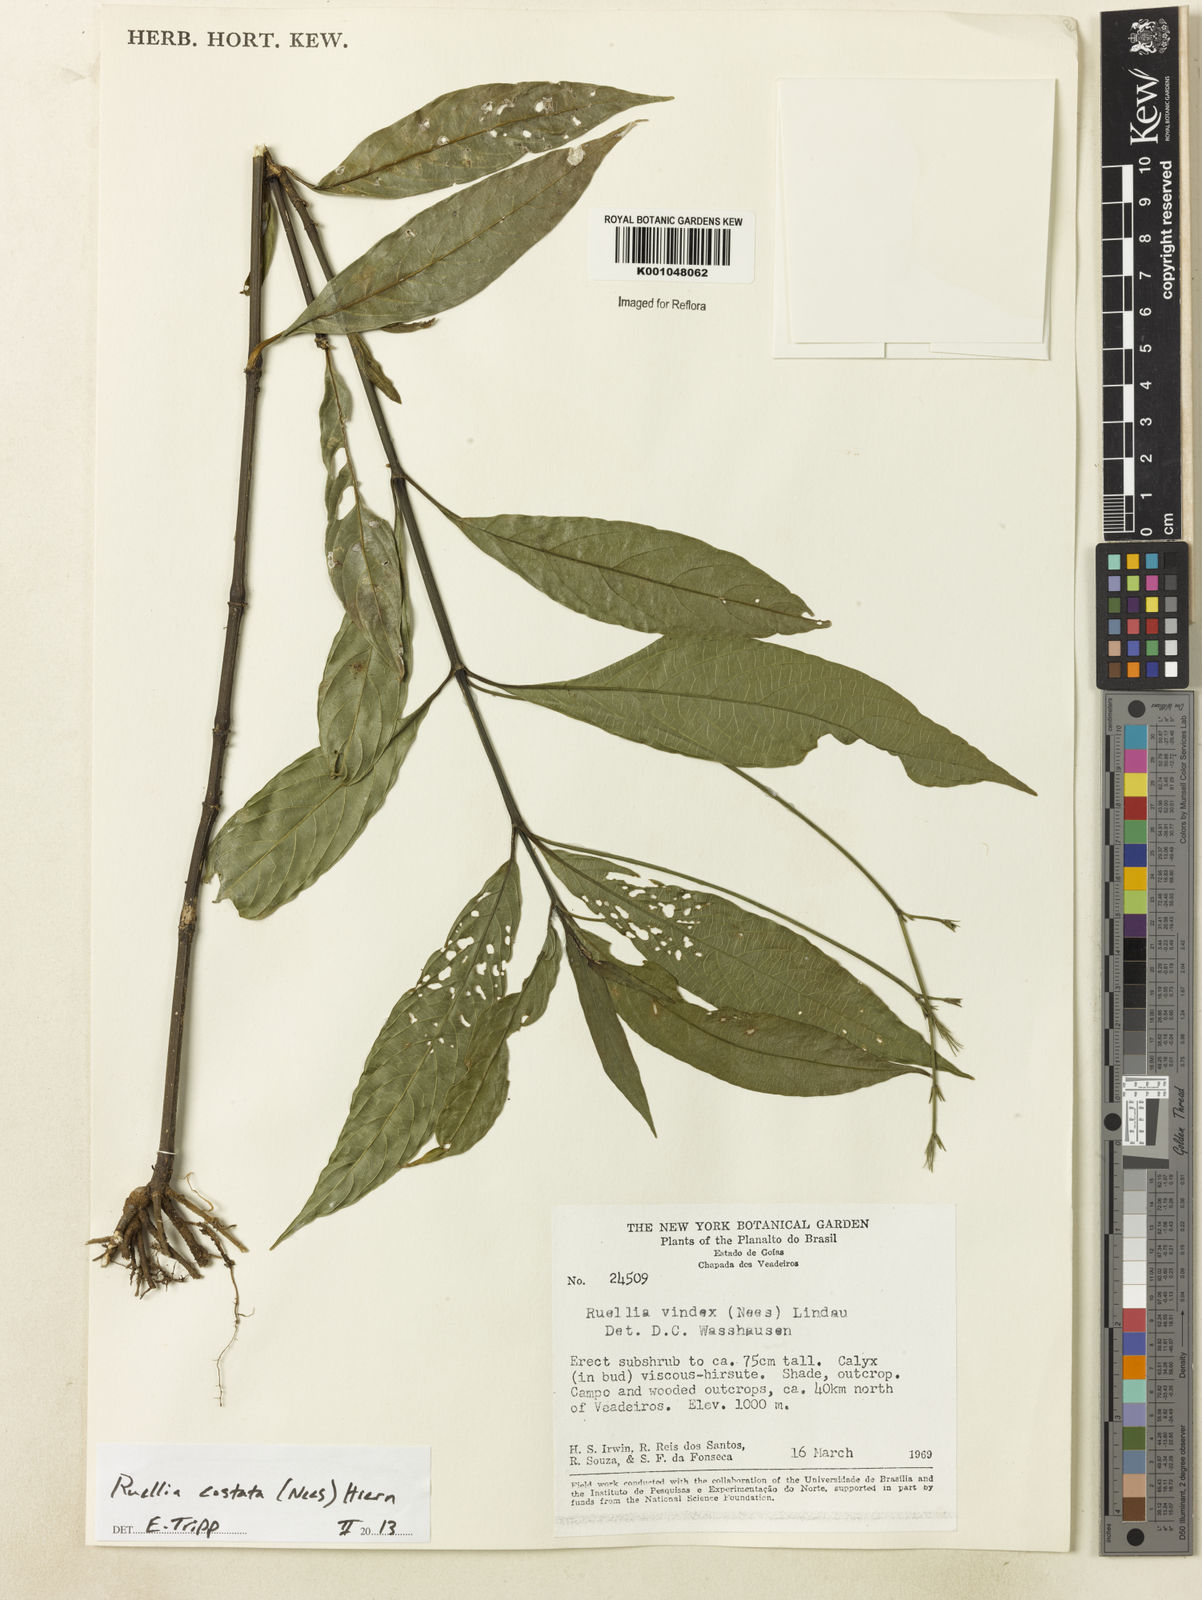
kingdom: Plantae
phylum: Tracheophyta
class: Magnoliopsida
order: Lamiales
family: Acanthaceae
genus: Ruellia
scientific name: Ruellia costata
